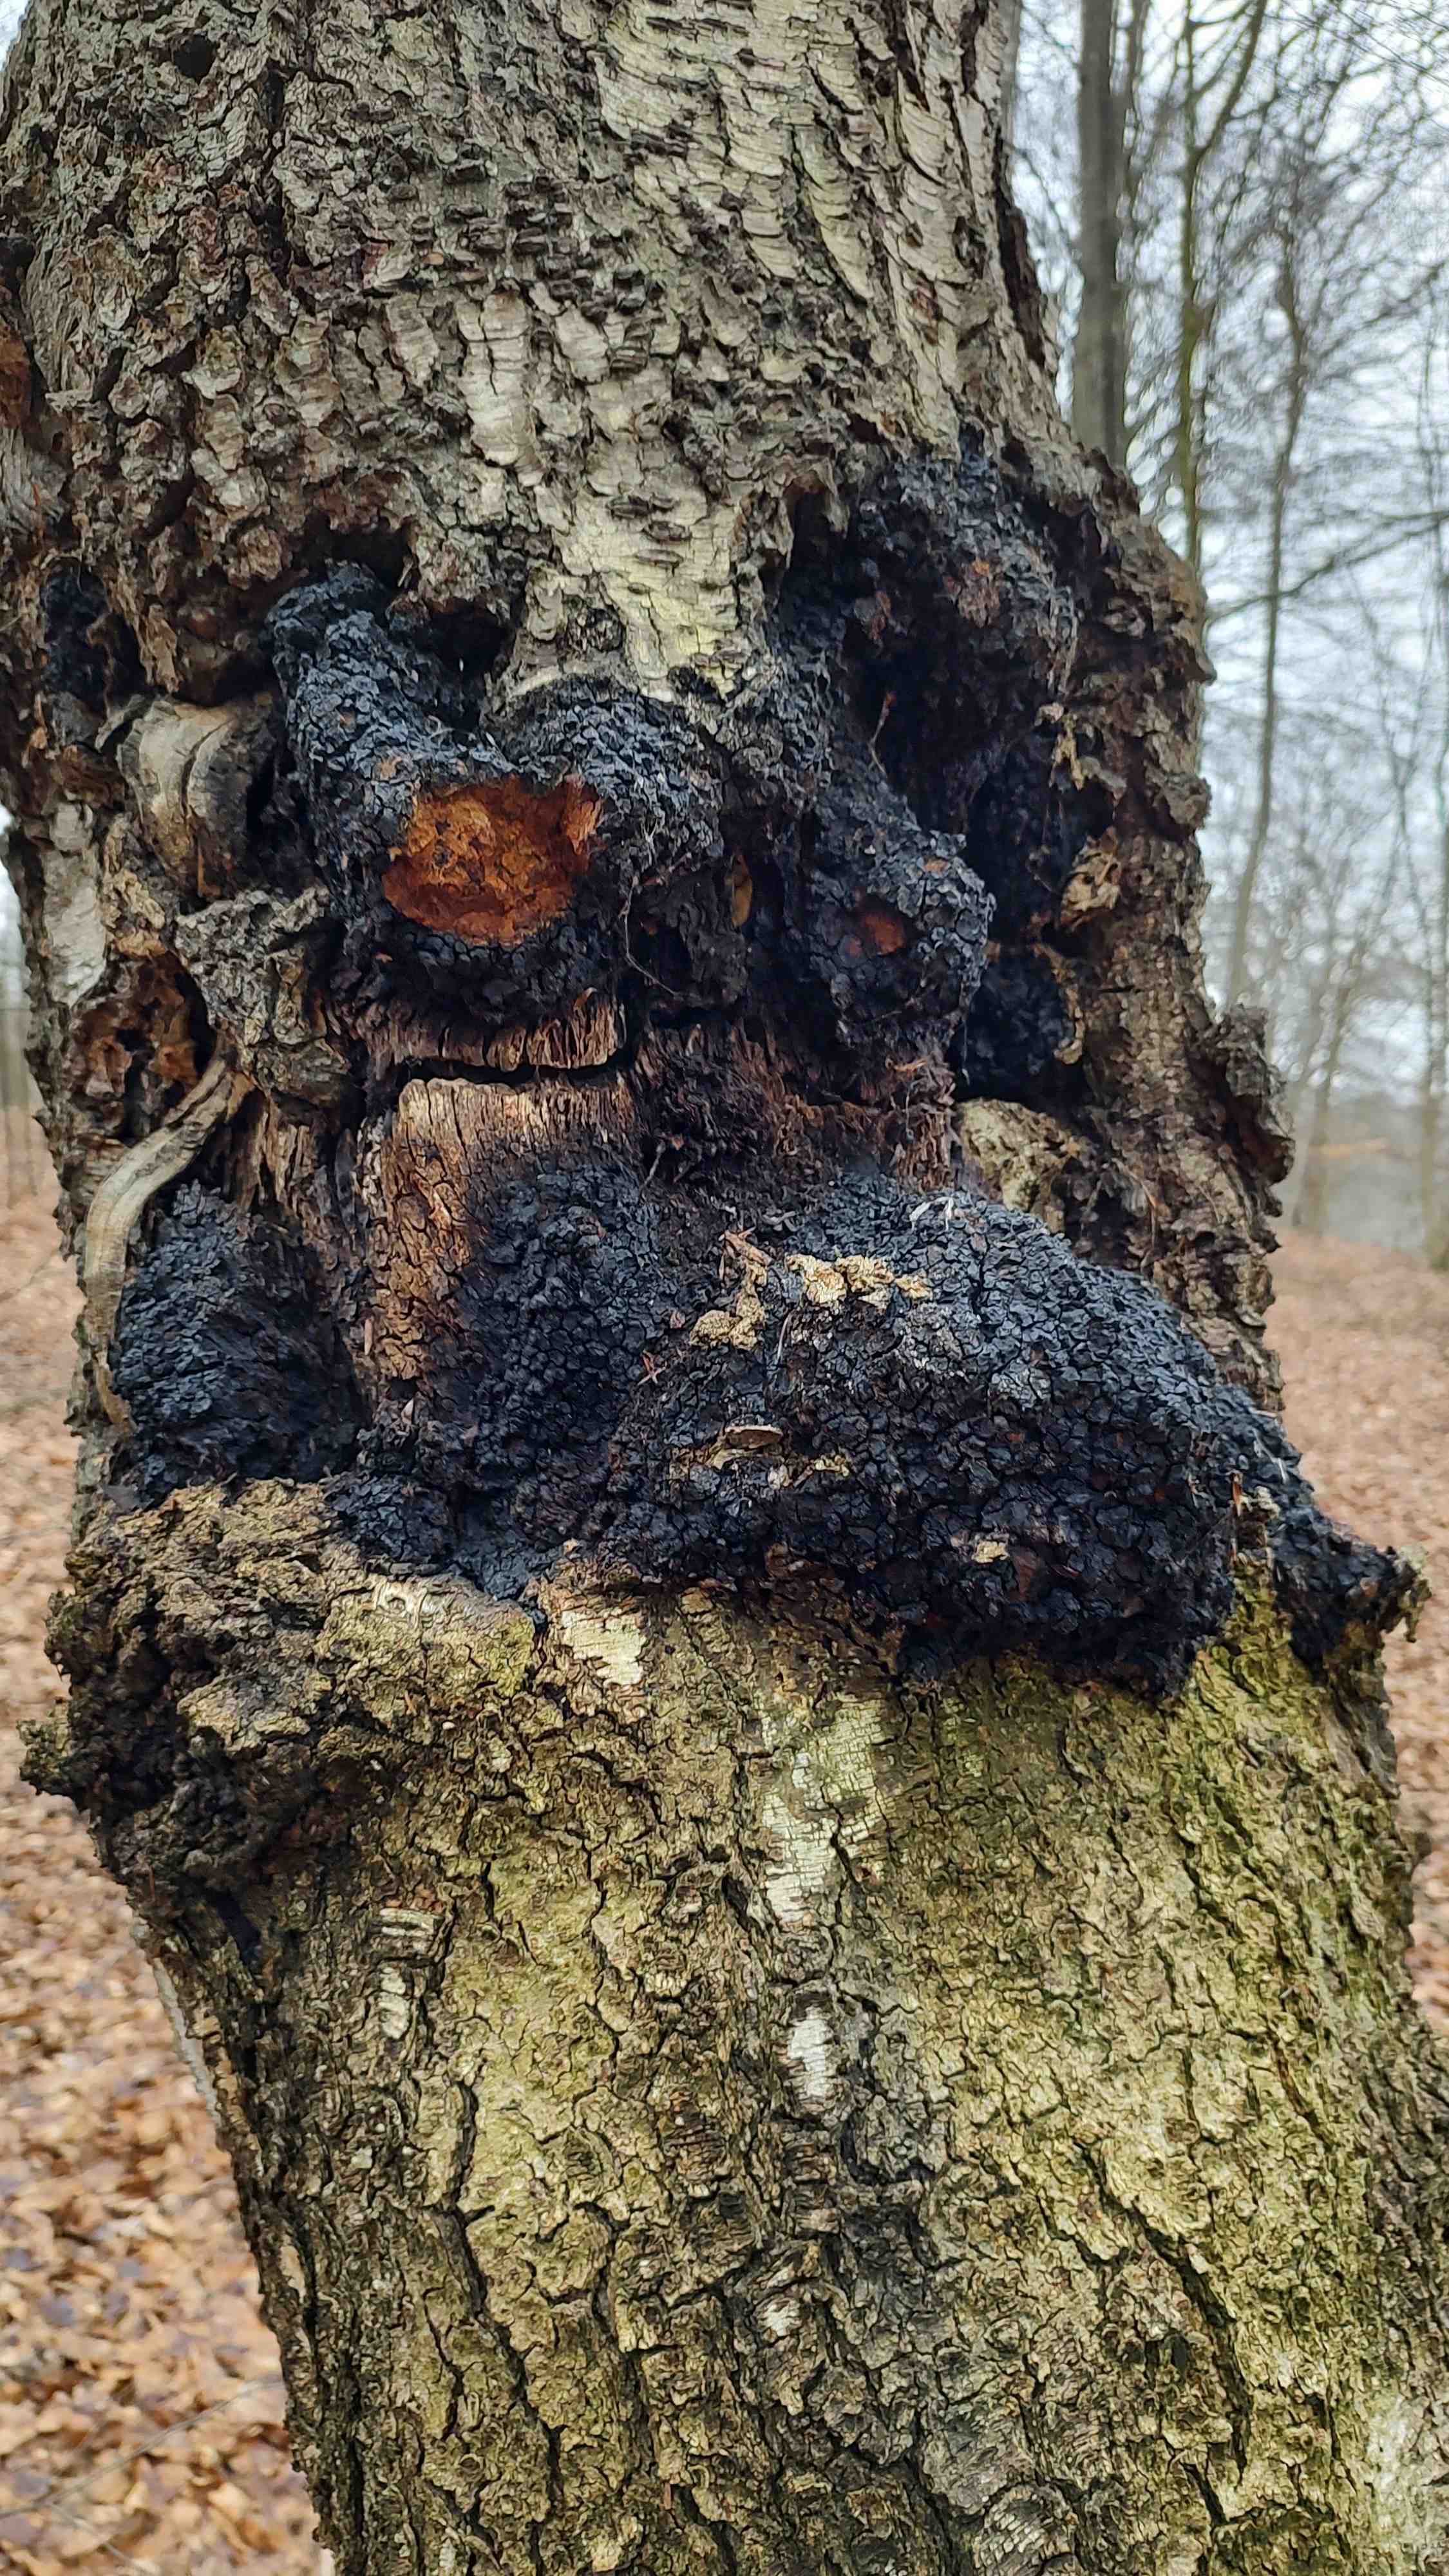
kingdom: Fungi
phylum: Basidiomycota
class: Agaricomycetes
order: Hymenochaetales
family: Hymenochaetaceae
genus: Inonotus
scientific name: Inonotus obliquus
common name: birke-spejlporesvamp
